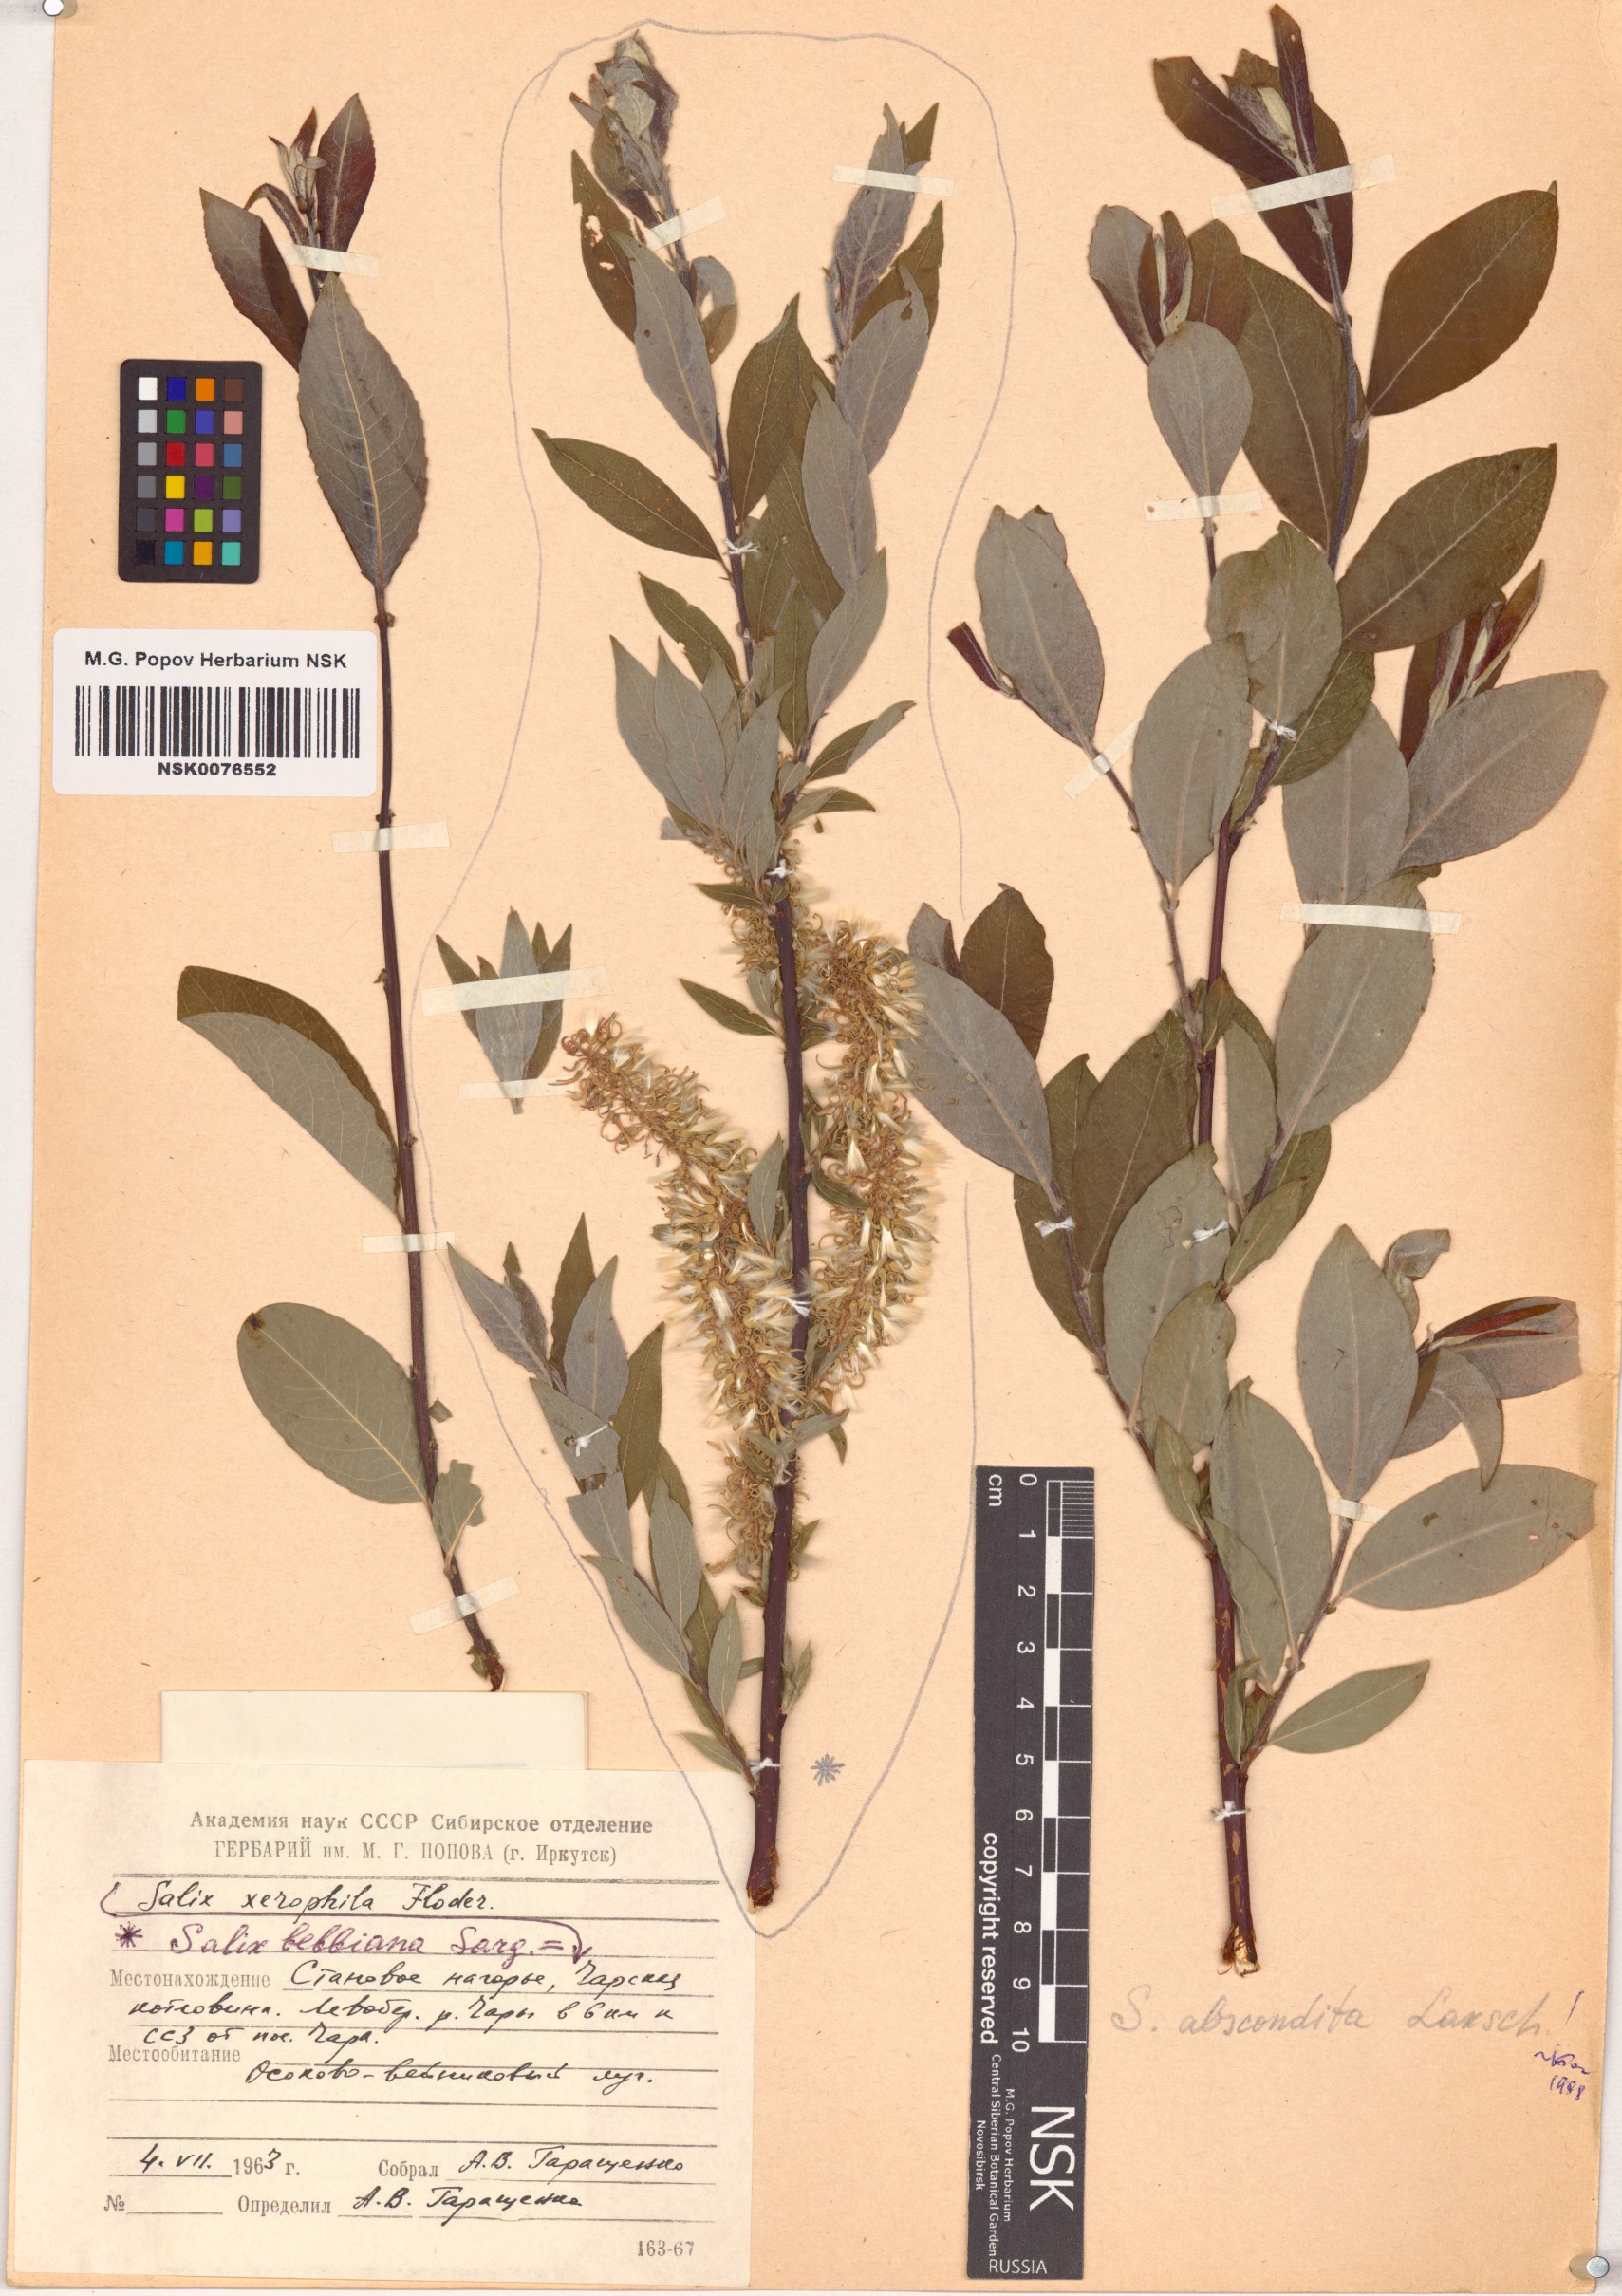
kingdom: Plantae
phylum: Tracheophyta
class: Magnoliopsida
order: Malpighiales
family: Salicaceae
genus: Salix
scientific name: Salix abscondita
